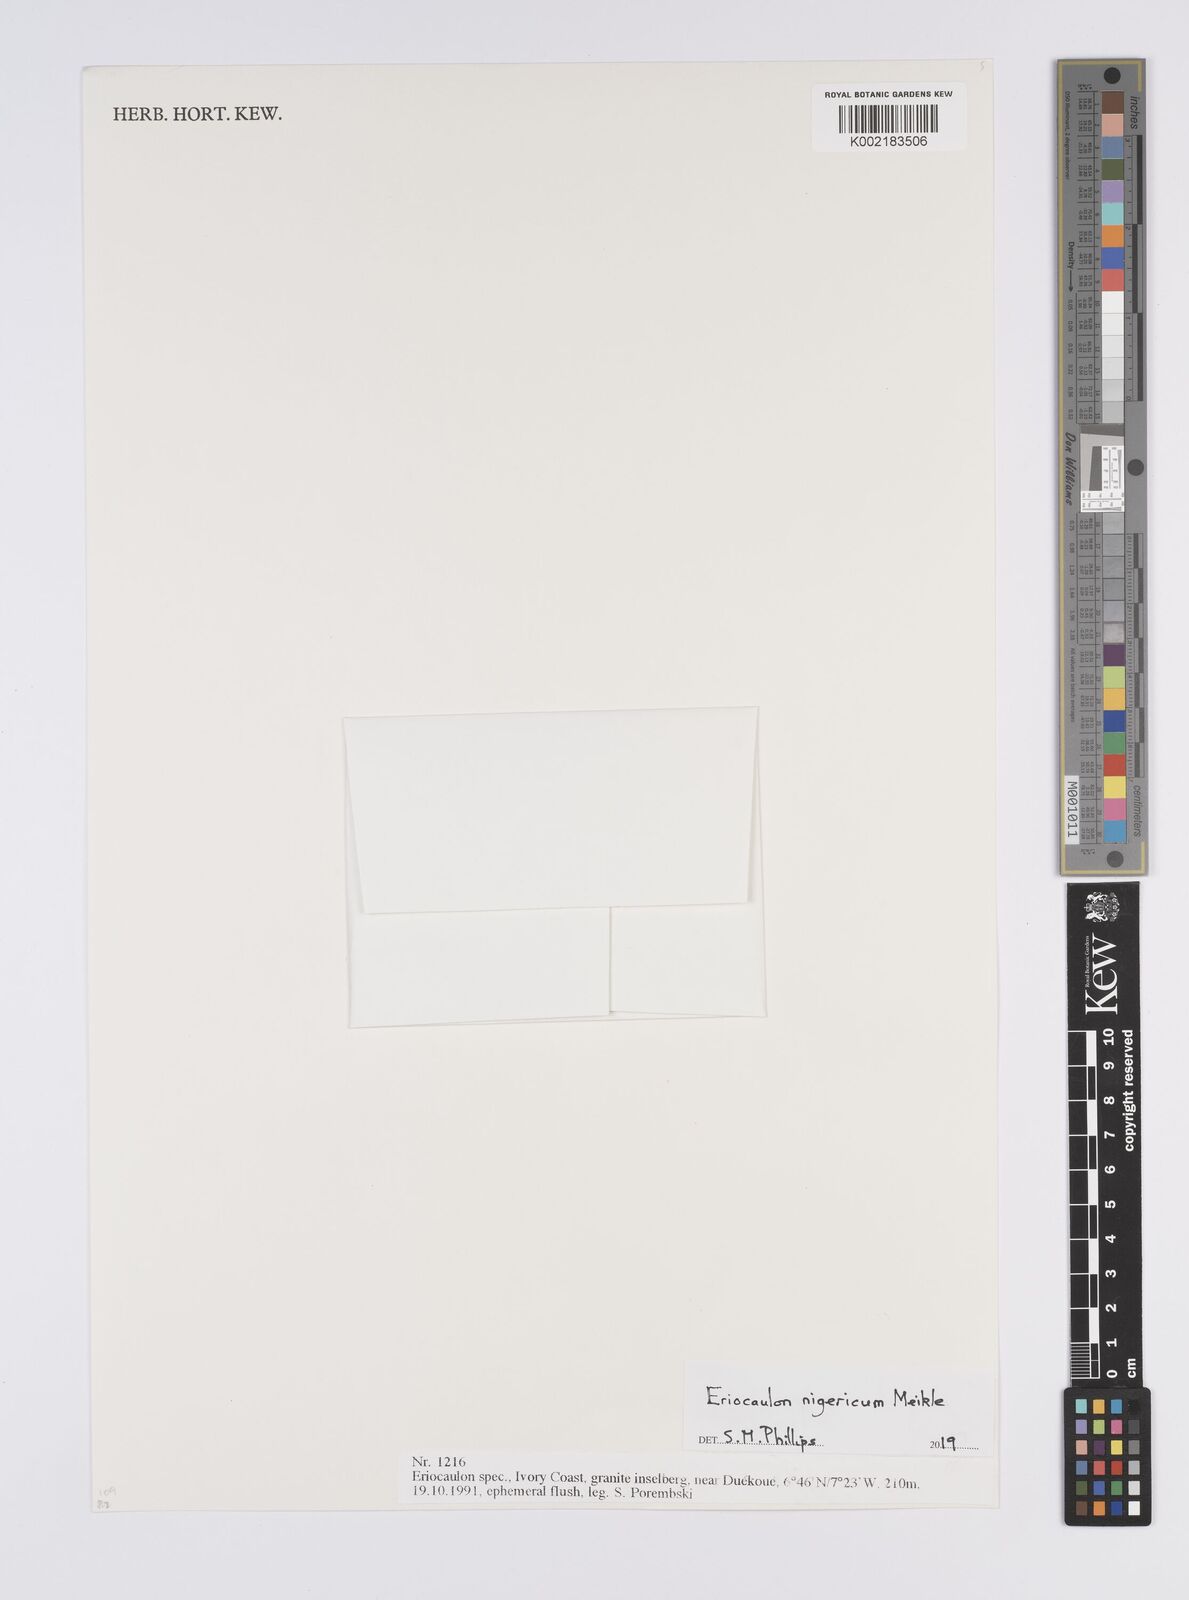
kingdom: Plantae
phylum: Tracheophyta
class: Liliopsida
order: Poales
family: Eriocaulaceae
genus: Eriocaulon
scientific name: Eriocaulon nigericum
